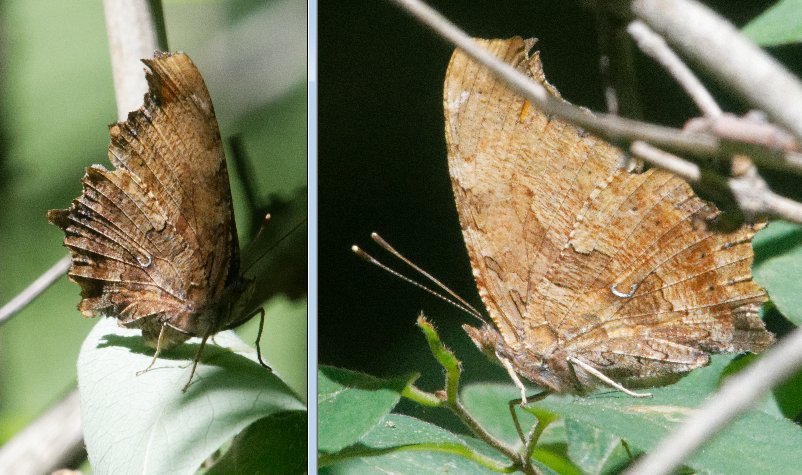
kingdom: Animalia
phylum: Arthropoda
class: Insecta
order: Lepidoptera
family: Nymphalidae
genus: Polygonia
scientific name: Polygonia comma
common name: Eastern Comma
